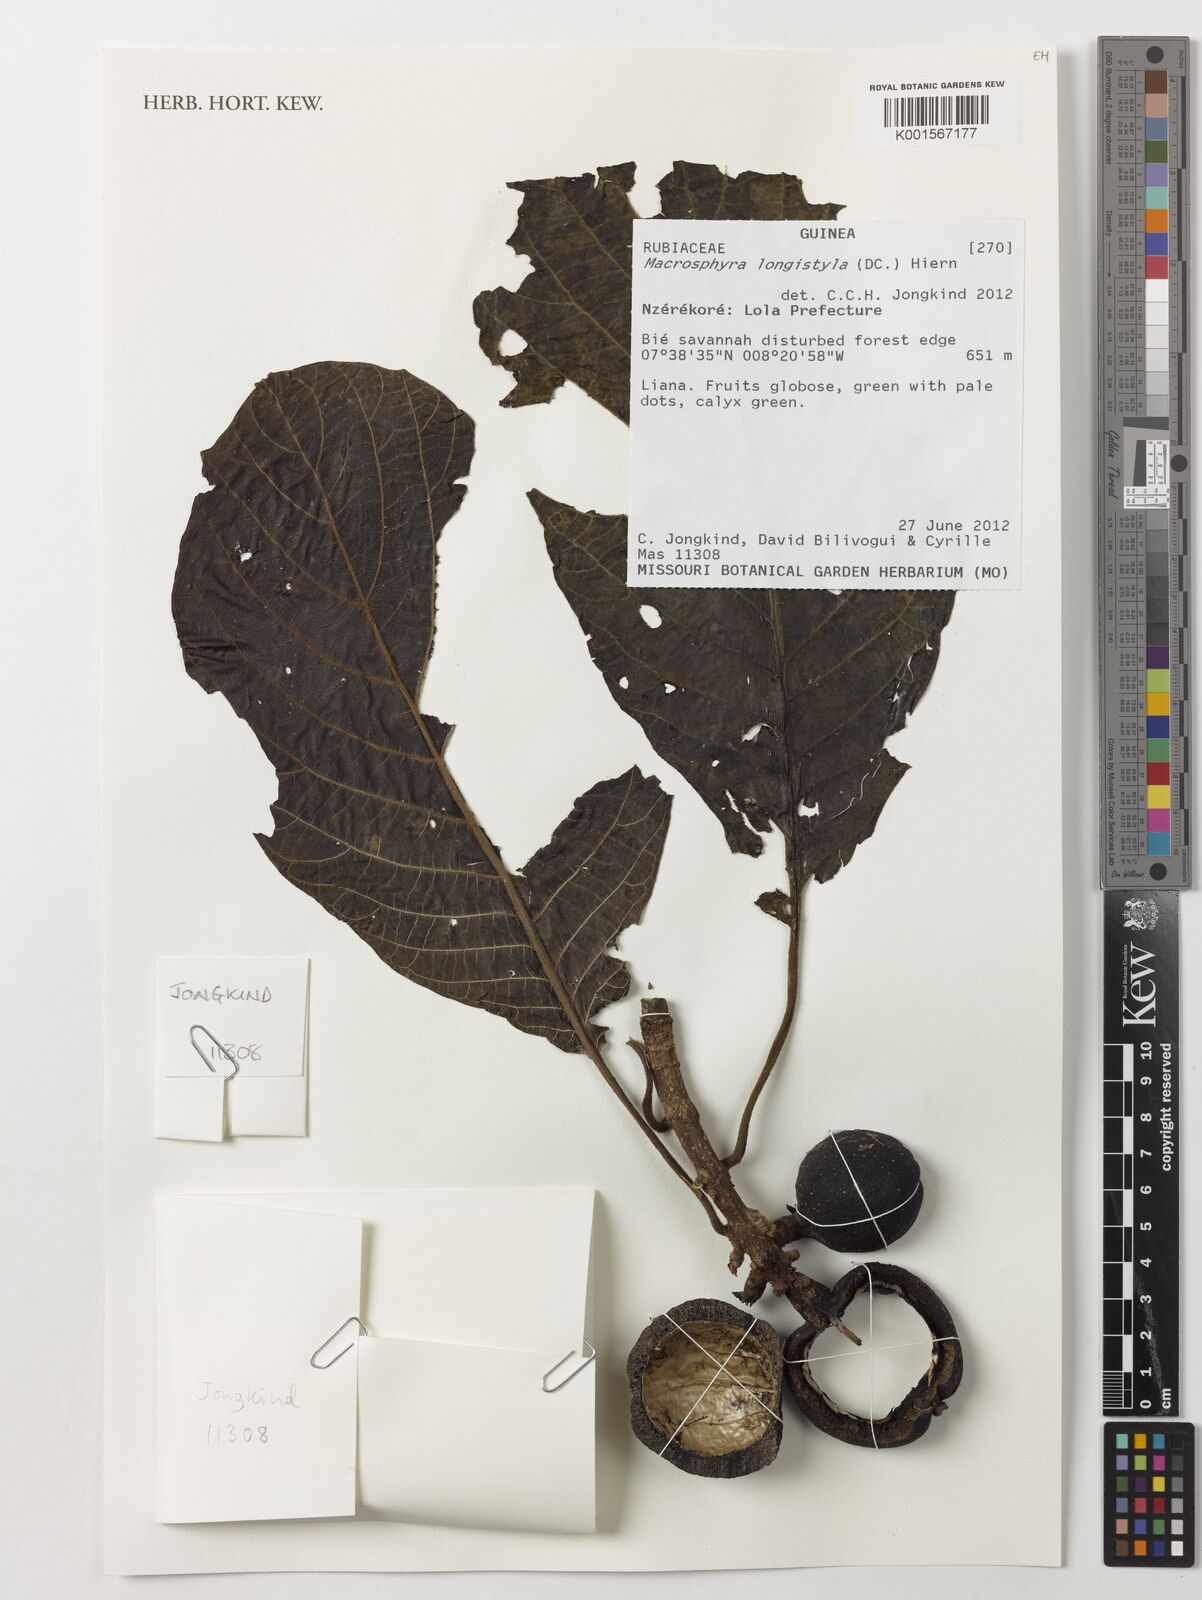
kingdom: Plantae
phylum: Tracheophyta
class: Magnoliopsida
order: Gentianales
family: Rubiaceae
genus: Macrosphyra
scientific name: Macrosphyra longistyla
